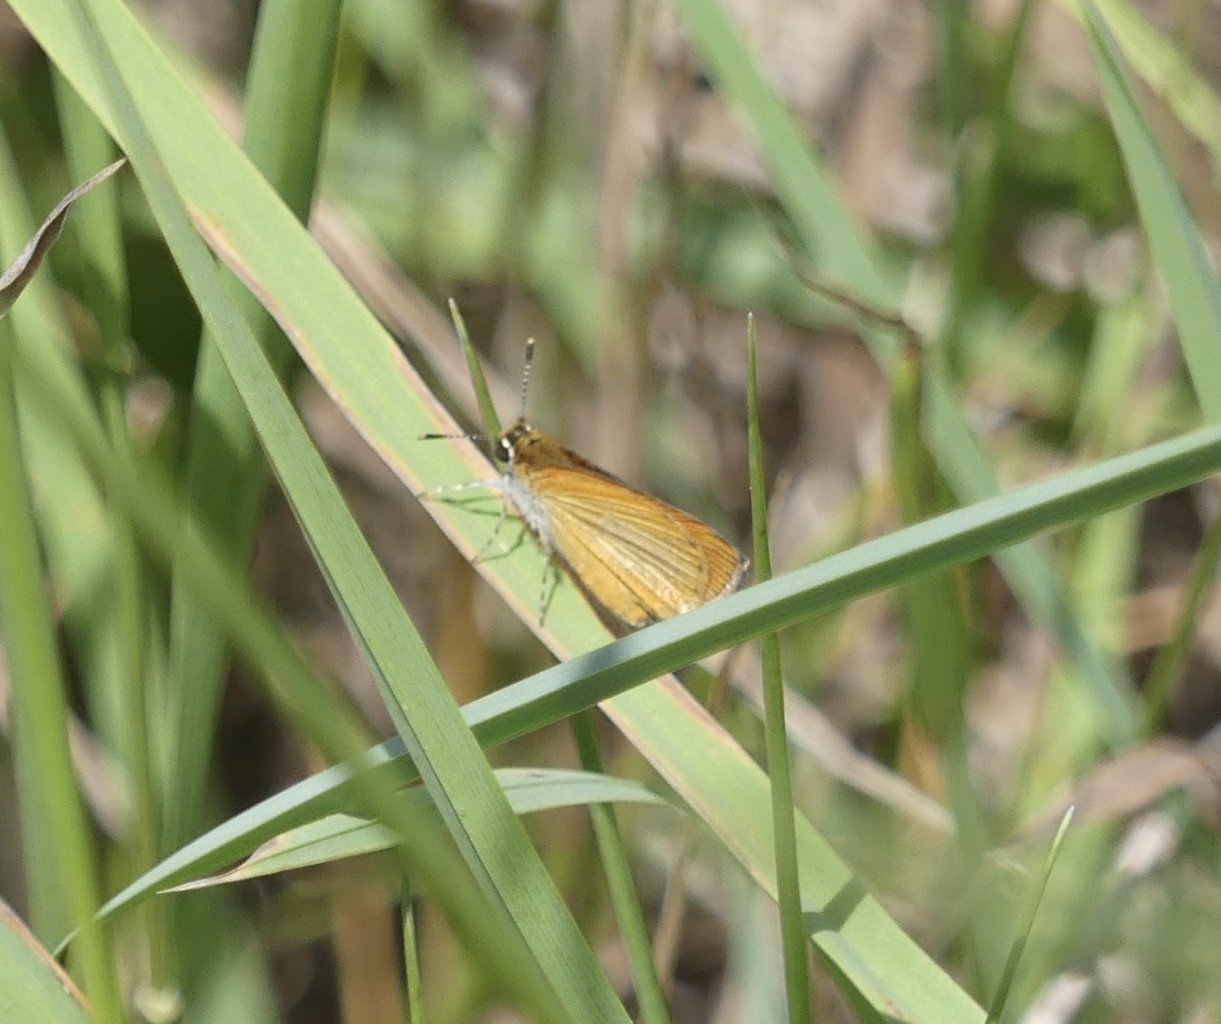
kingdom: Animalia
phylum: Arthropoda
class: Insecta
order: Lepidoptera
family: Hesperiidae
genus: Ancyloxypha
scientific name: Ancyloxypha numitor
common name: Least Skipper
